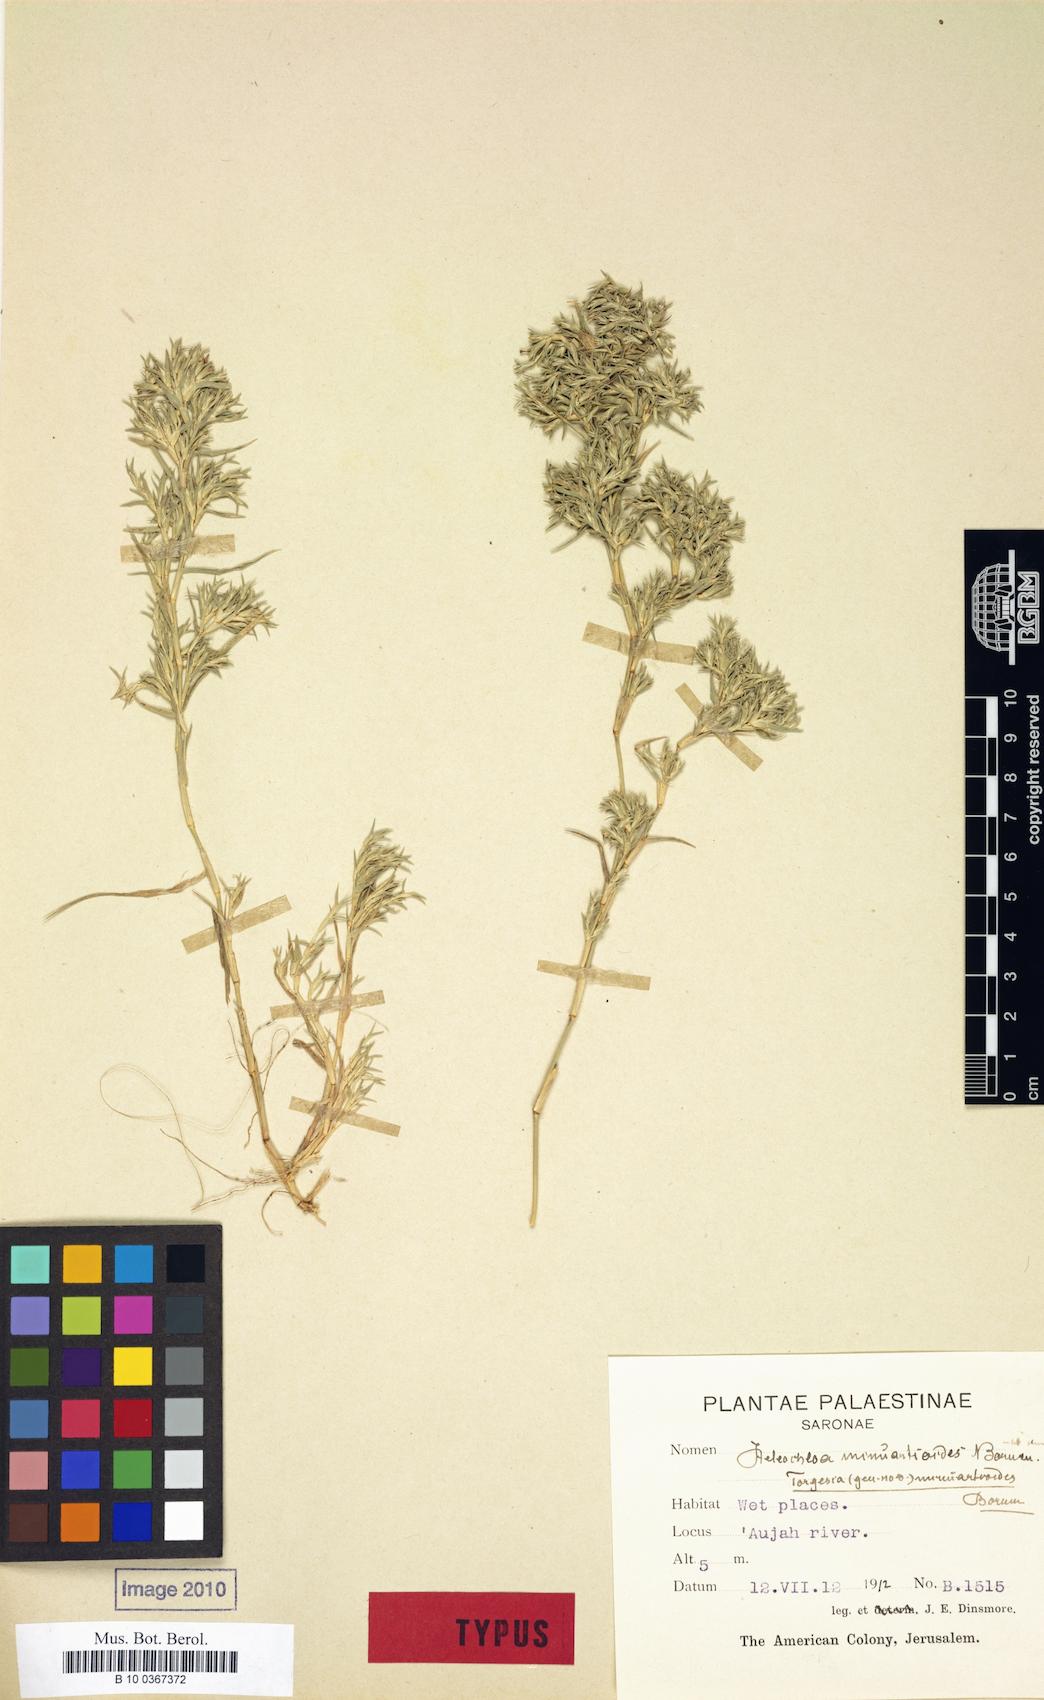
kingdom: Plantae
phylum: Tracheophyta
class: Liliopsida
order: Poales
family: Poaceae
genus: Sporobolus
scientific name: Sporobolus minuartioides
